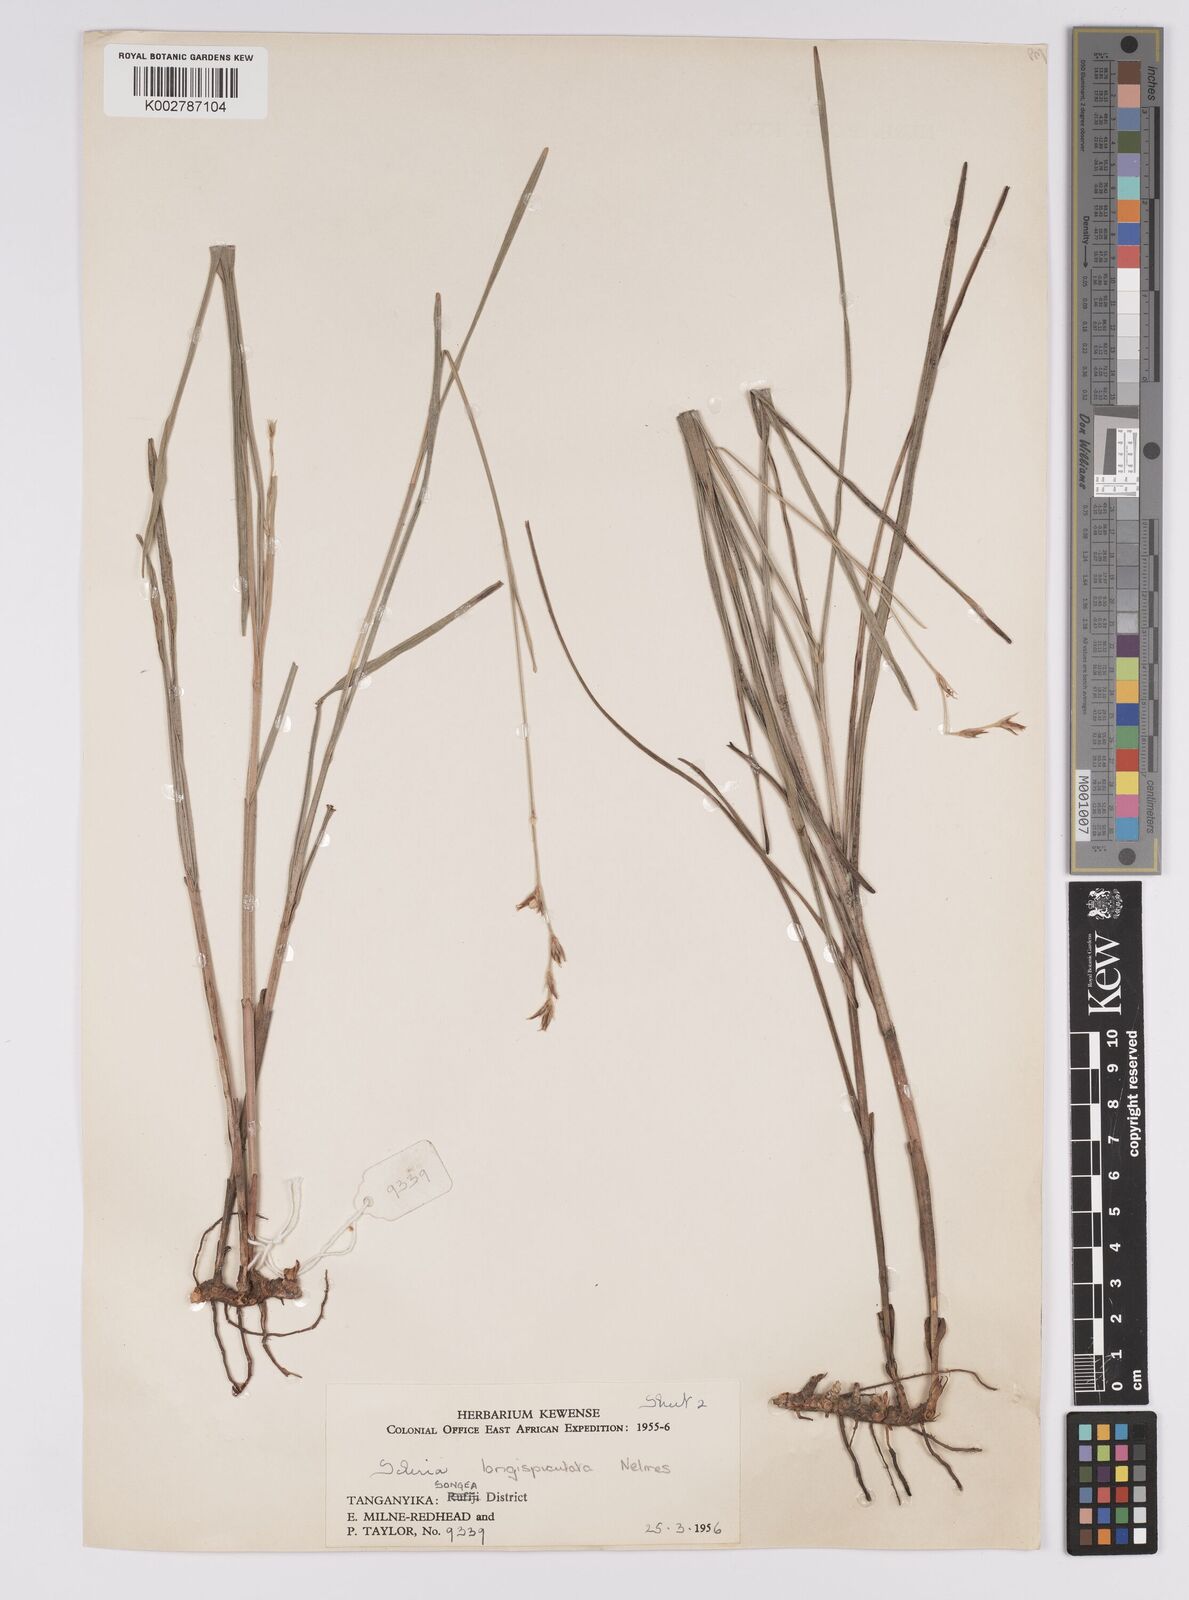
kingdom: Plantae
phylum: Tracheophyta
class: Liliopsida
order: Poales
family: Cyperaceae
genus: Scleria
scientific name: Scleria longispiculata
